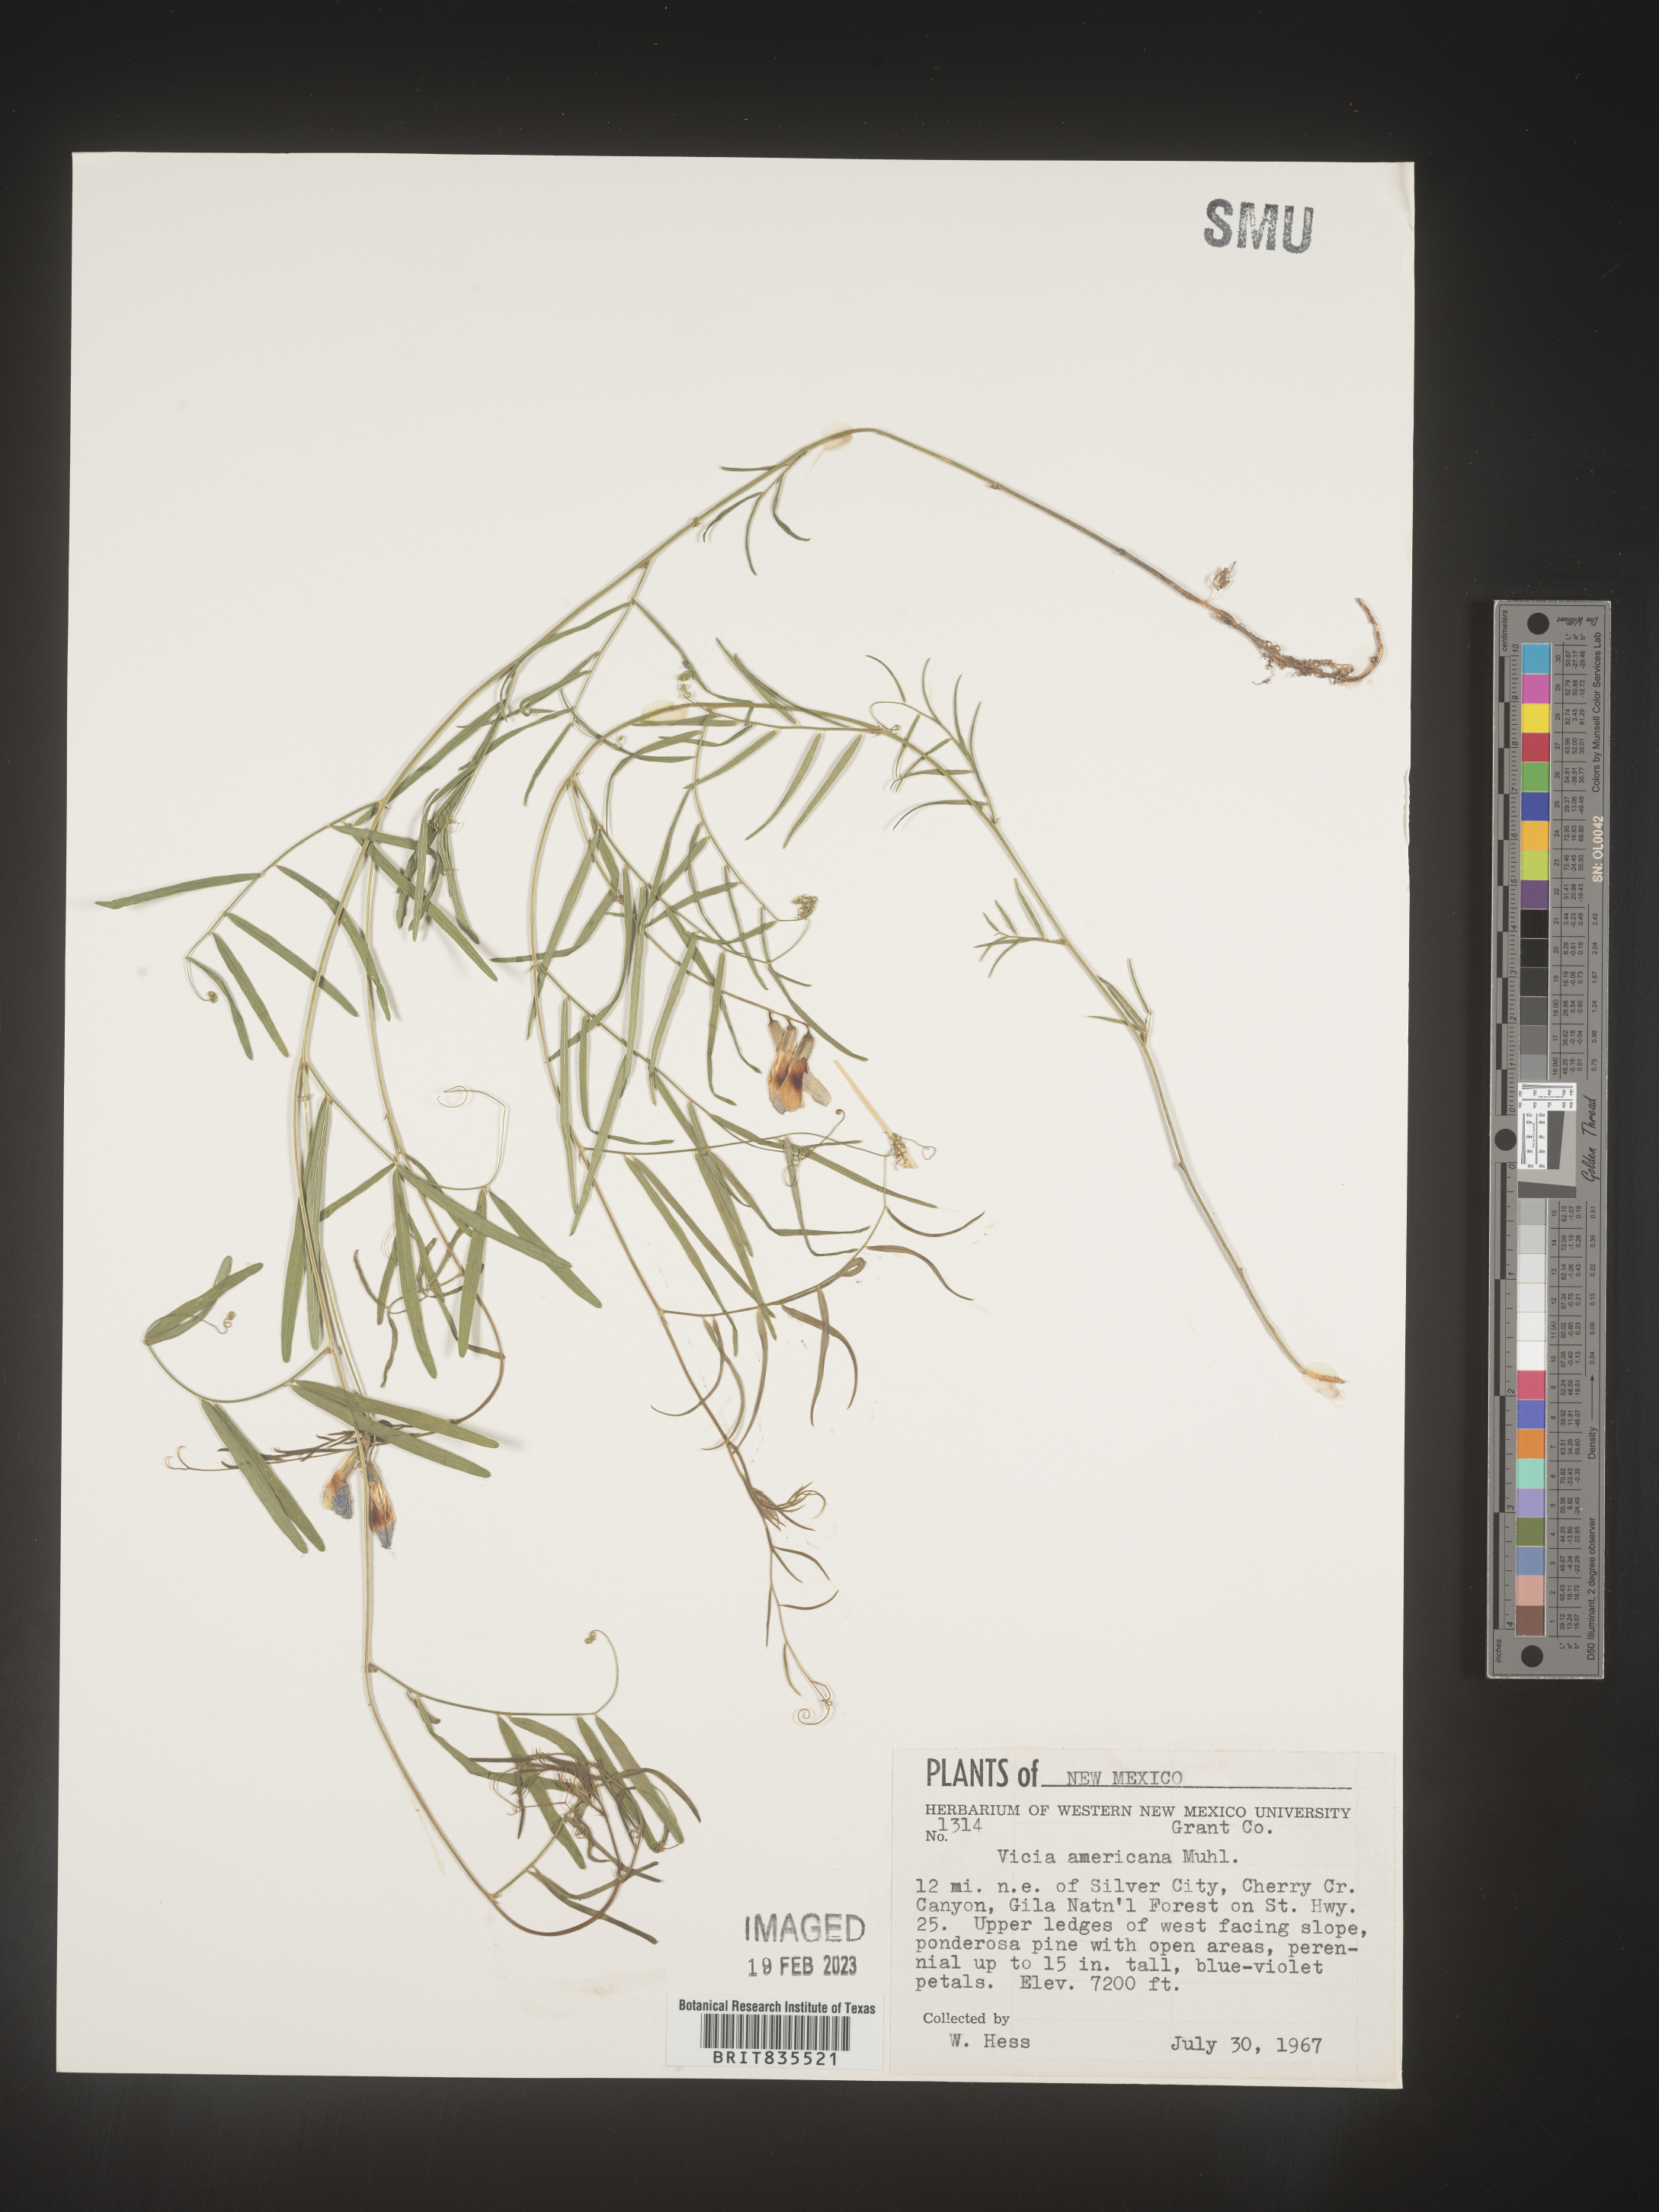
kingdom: Plantae
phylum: Tracheophyta
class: Magnoliopsida
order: Fabales
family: Fabaceae
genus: Vicia
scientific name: Vicia americana
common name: American vetch
